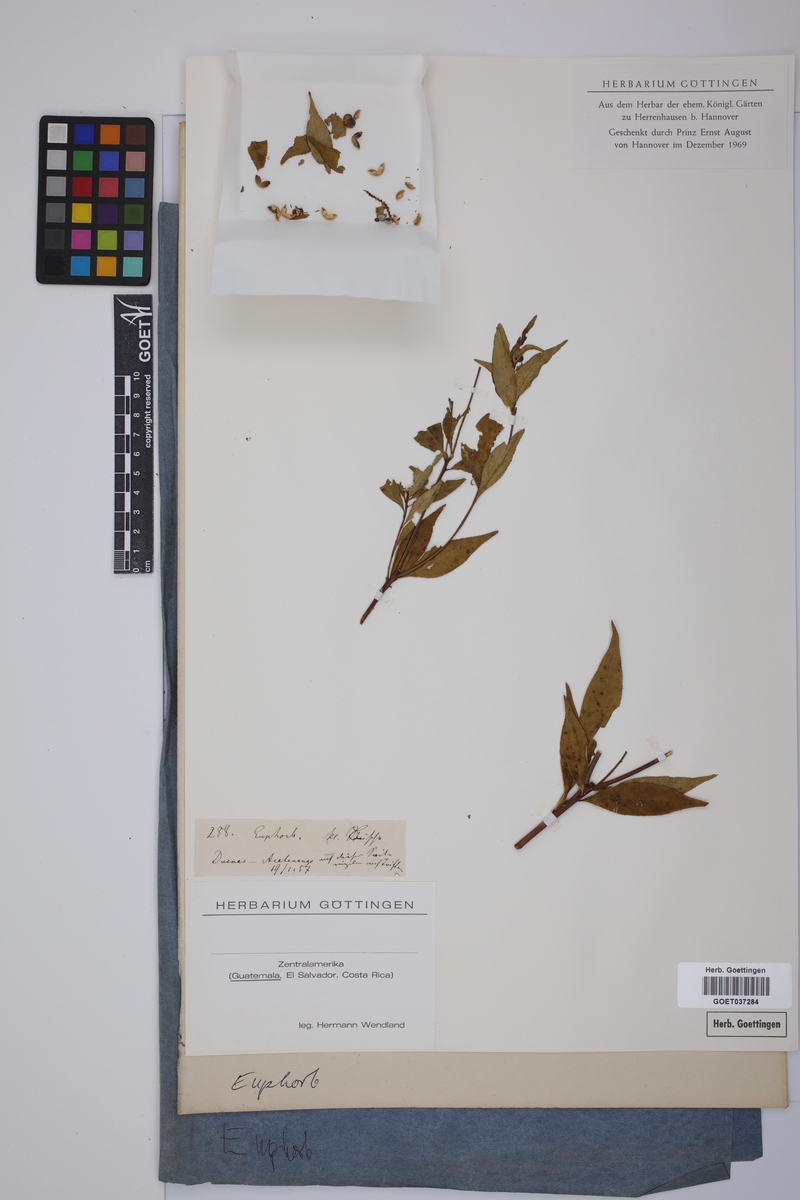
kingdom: Plantae
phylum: Tracheophyta
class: Magnoliopsida
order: Malpighiales
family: Euphorbiaceae
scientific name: Euphorbiaceae
